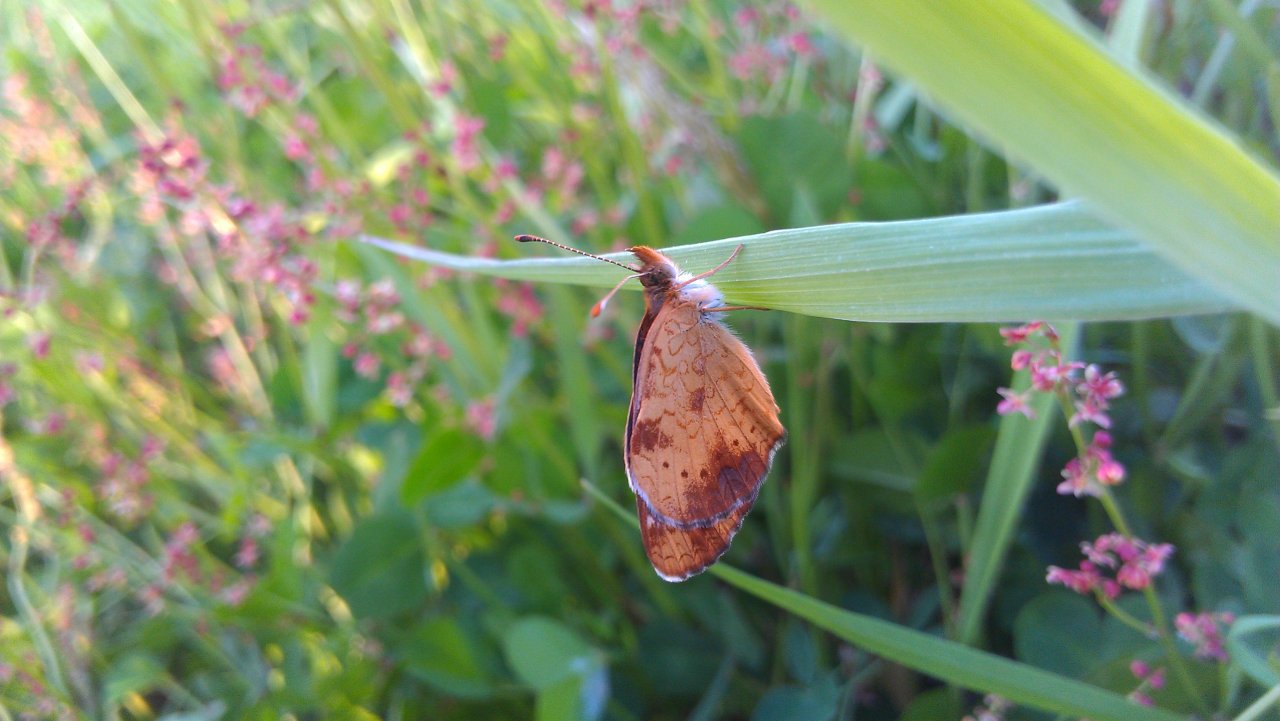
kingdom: Animalia
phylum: Arthropoda
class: Insecta
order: Lepidoptera
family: Nymphalidae
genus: Phyciodes
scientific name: Phyciodes tharos
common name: Northern Crescent
